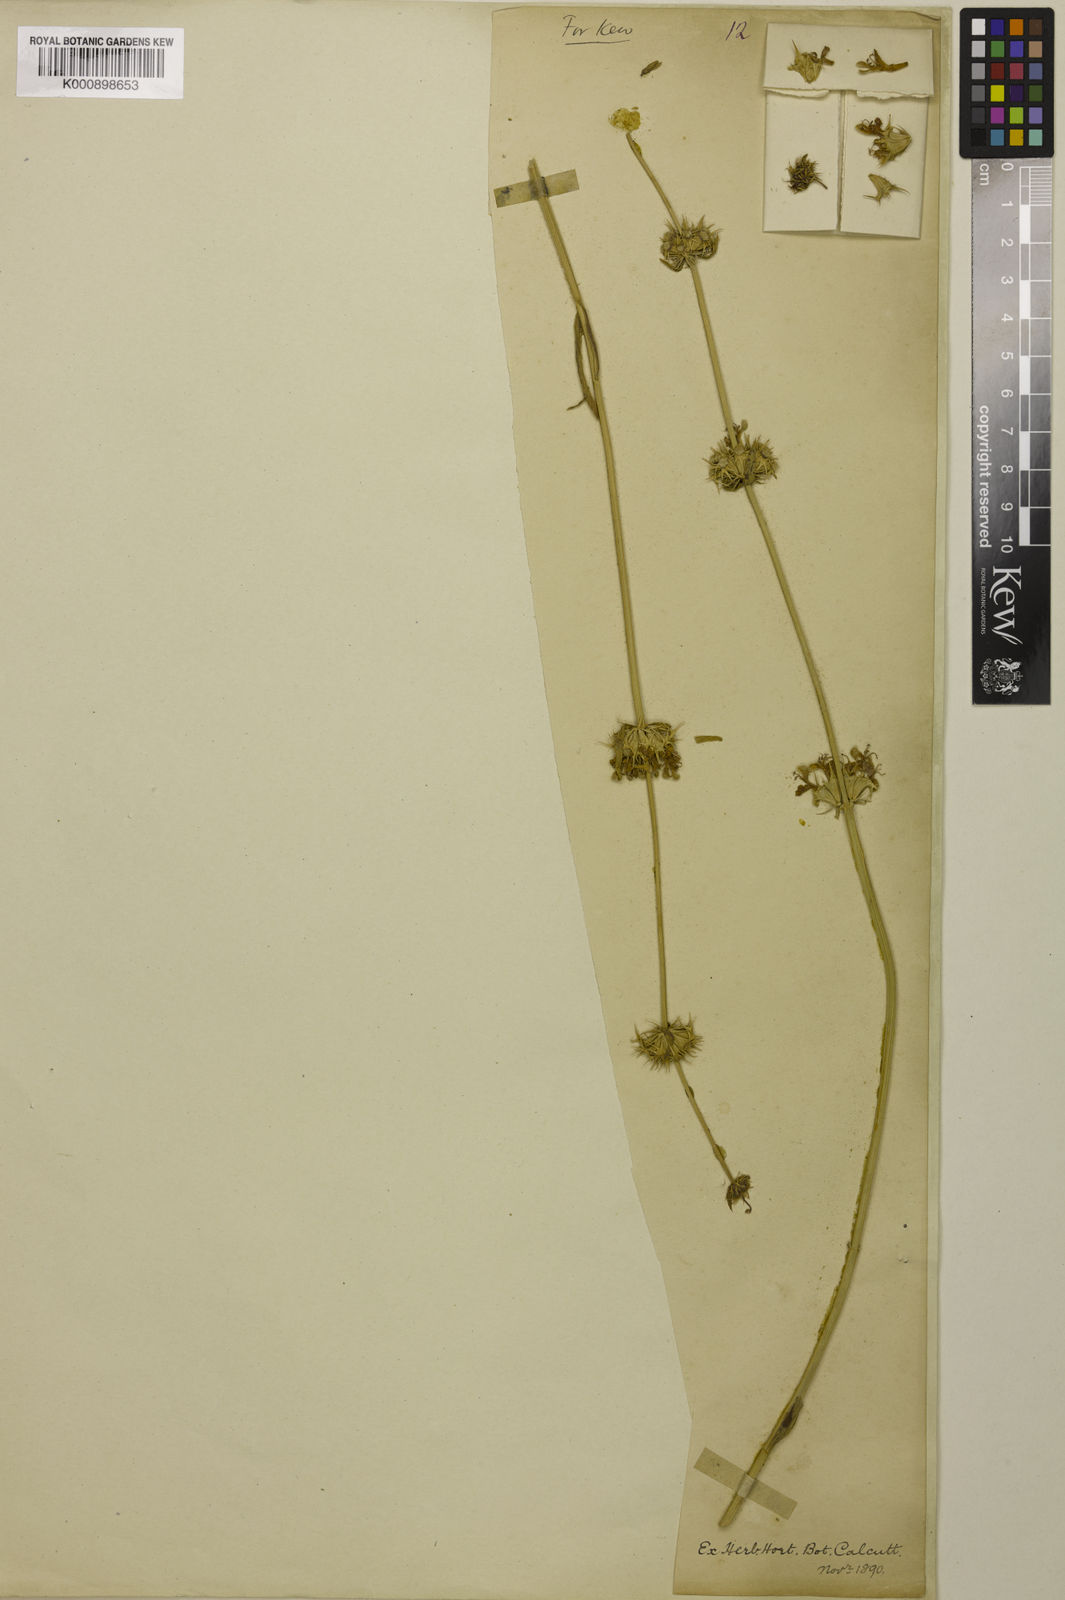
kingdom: Plantae
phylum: Tracheophyta
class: Magnoliopsida
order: Lamiales
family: Lamiaceae
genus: Moluccella
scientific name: Moluccella otostegioides
